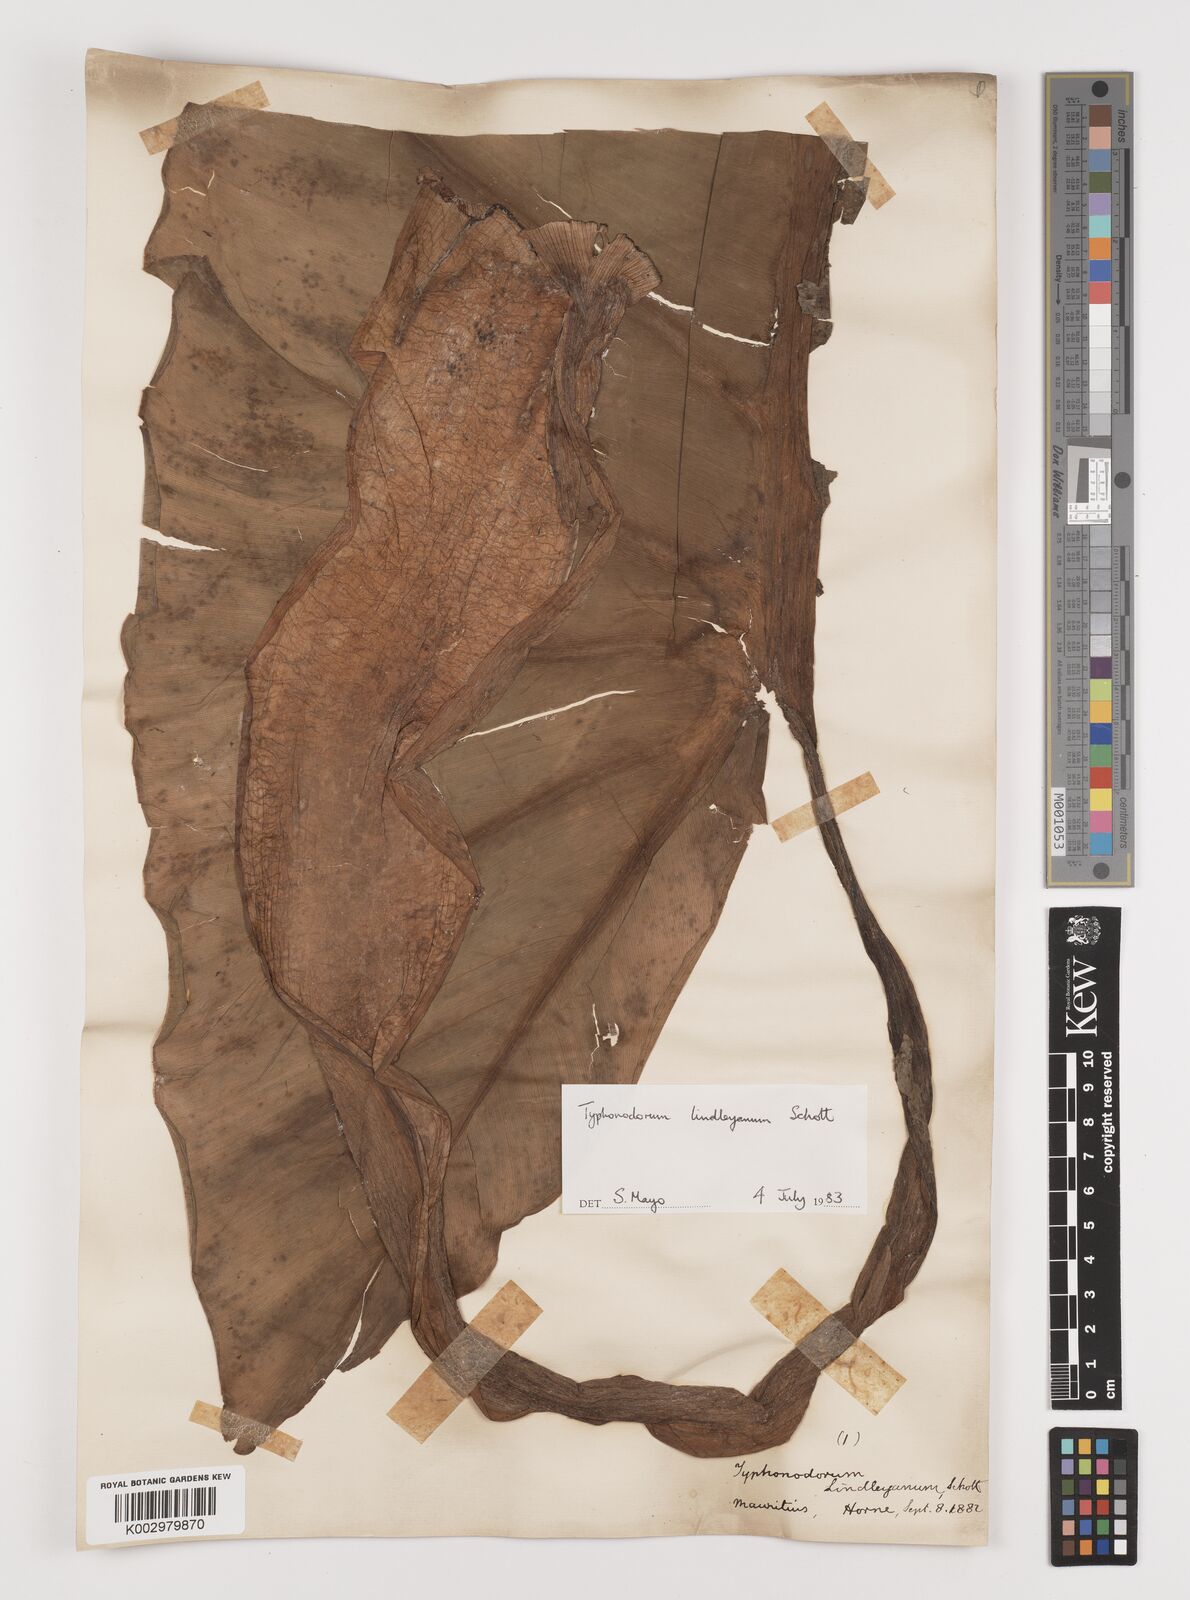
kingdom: Plantae
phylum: Tracheophyta
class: Liliopsida
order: Alismatales
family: Araceae
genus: Typhonodorum
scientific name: Typhonodorum lindleyanum
